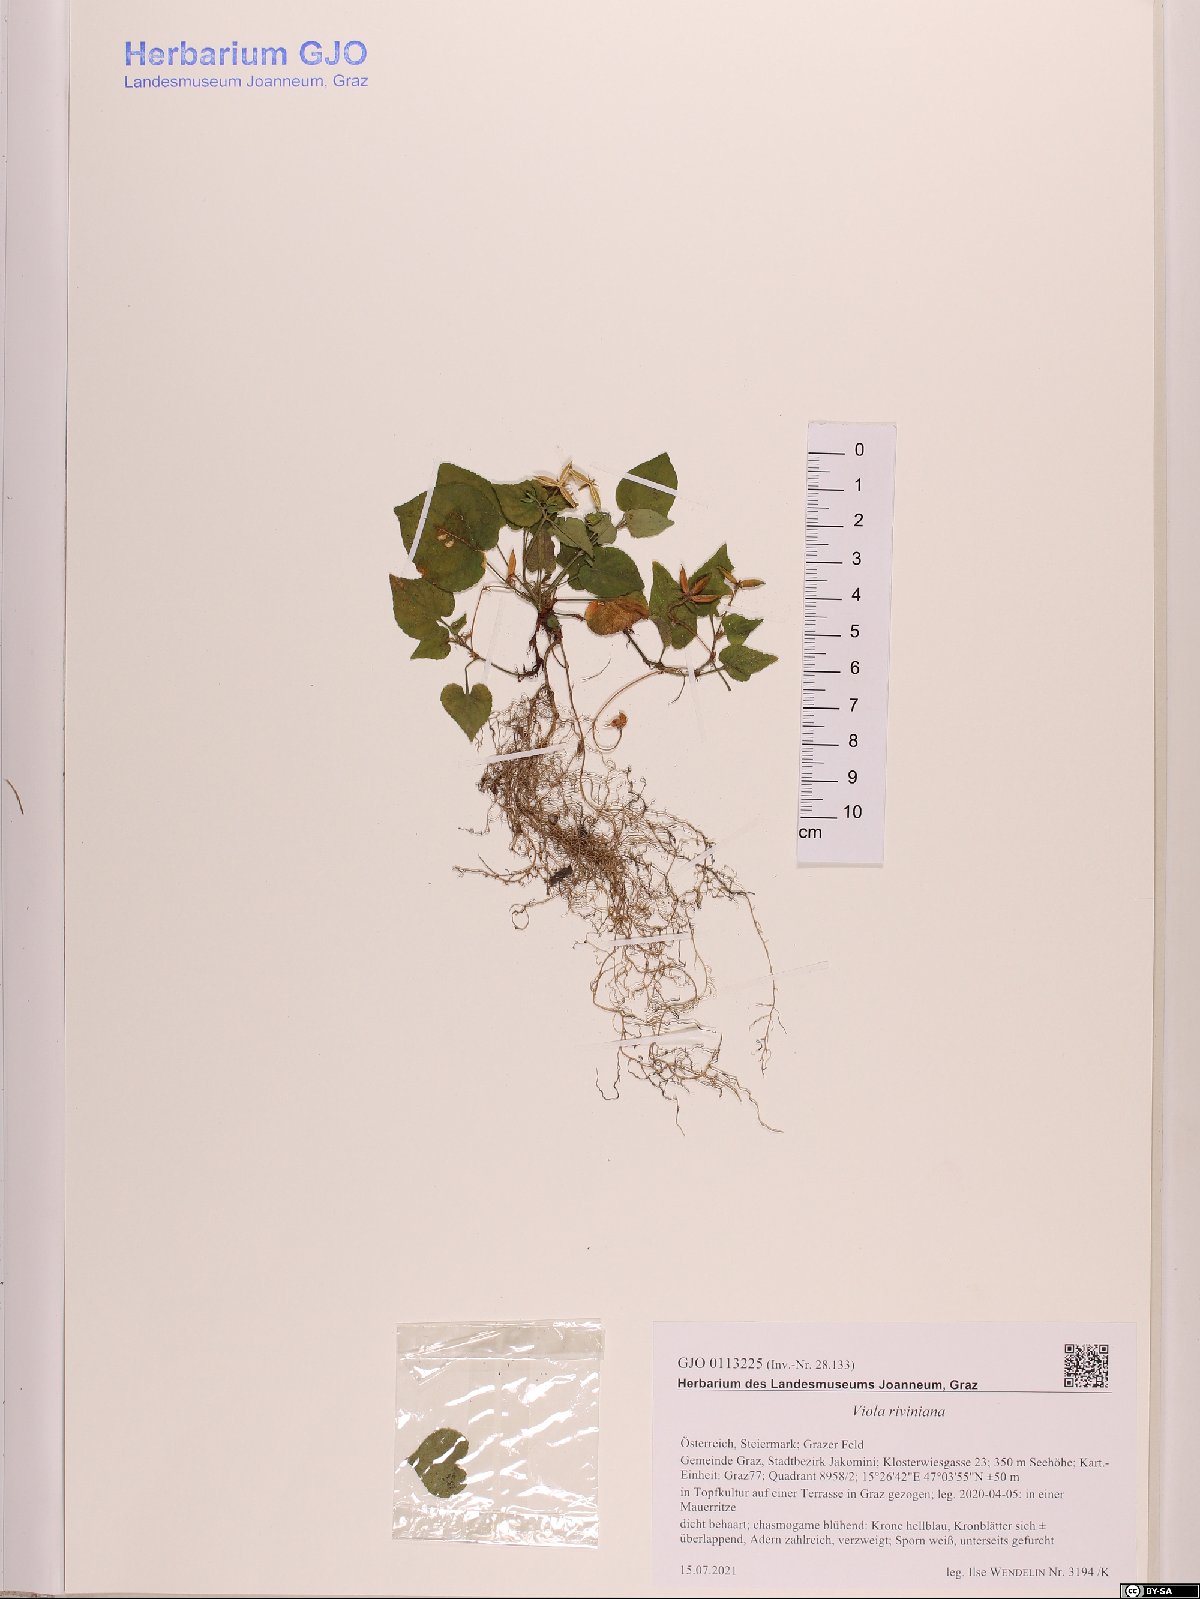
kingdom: Plantae
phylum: Tracheophyta
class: Magnoliopsida
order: Malpighiales
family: Violaceae
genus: Viola
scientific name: Viola riviniana
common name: Common dog-violet
